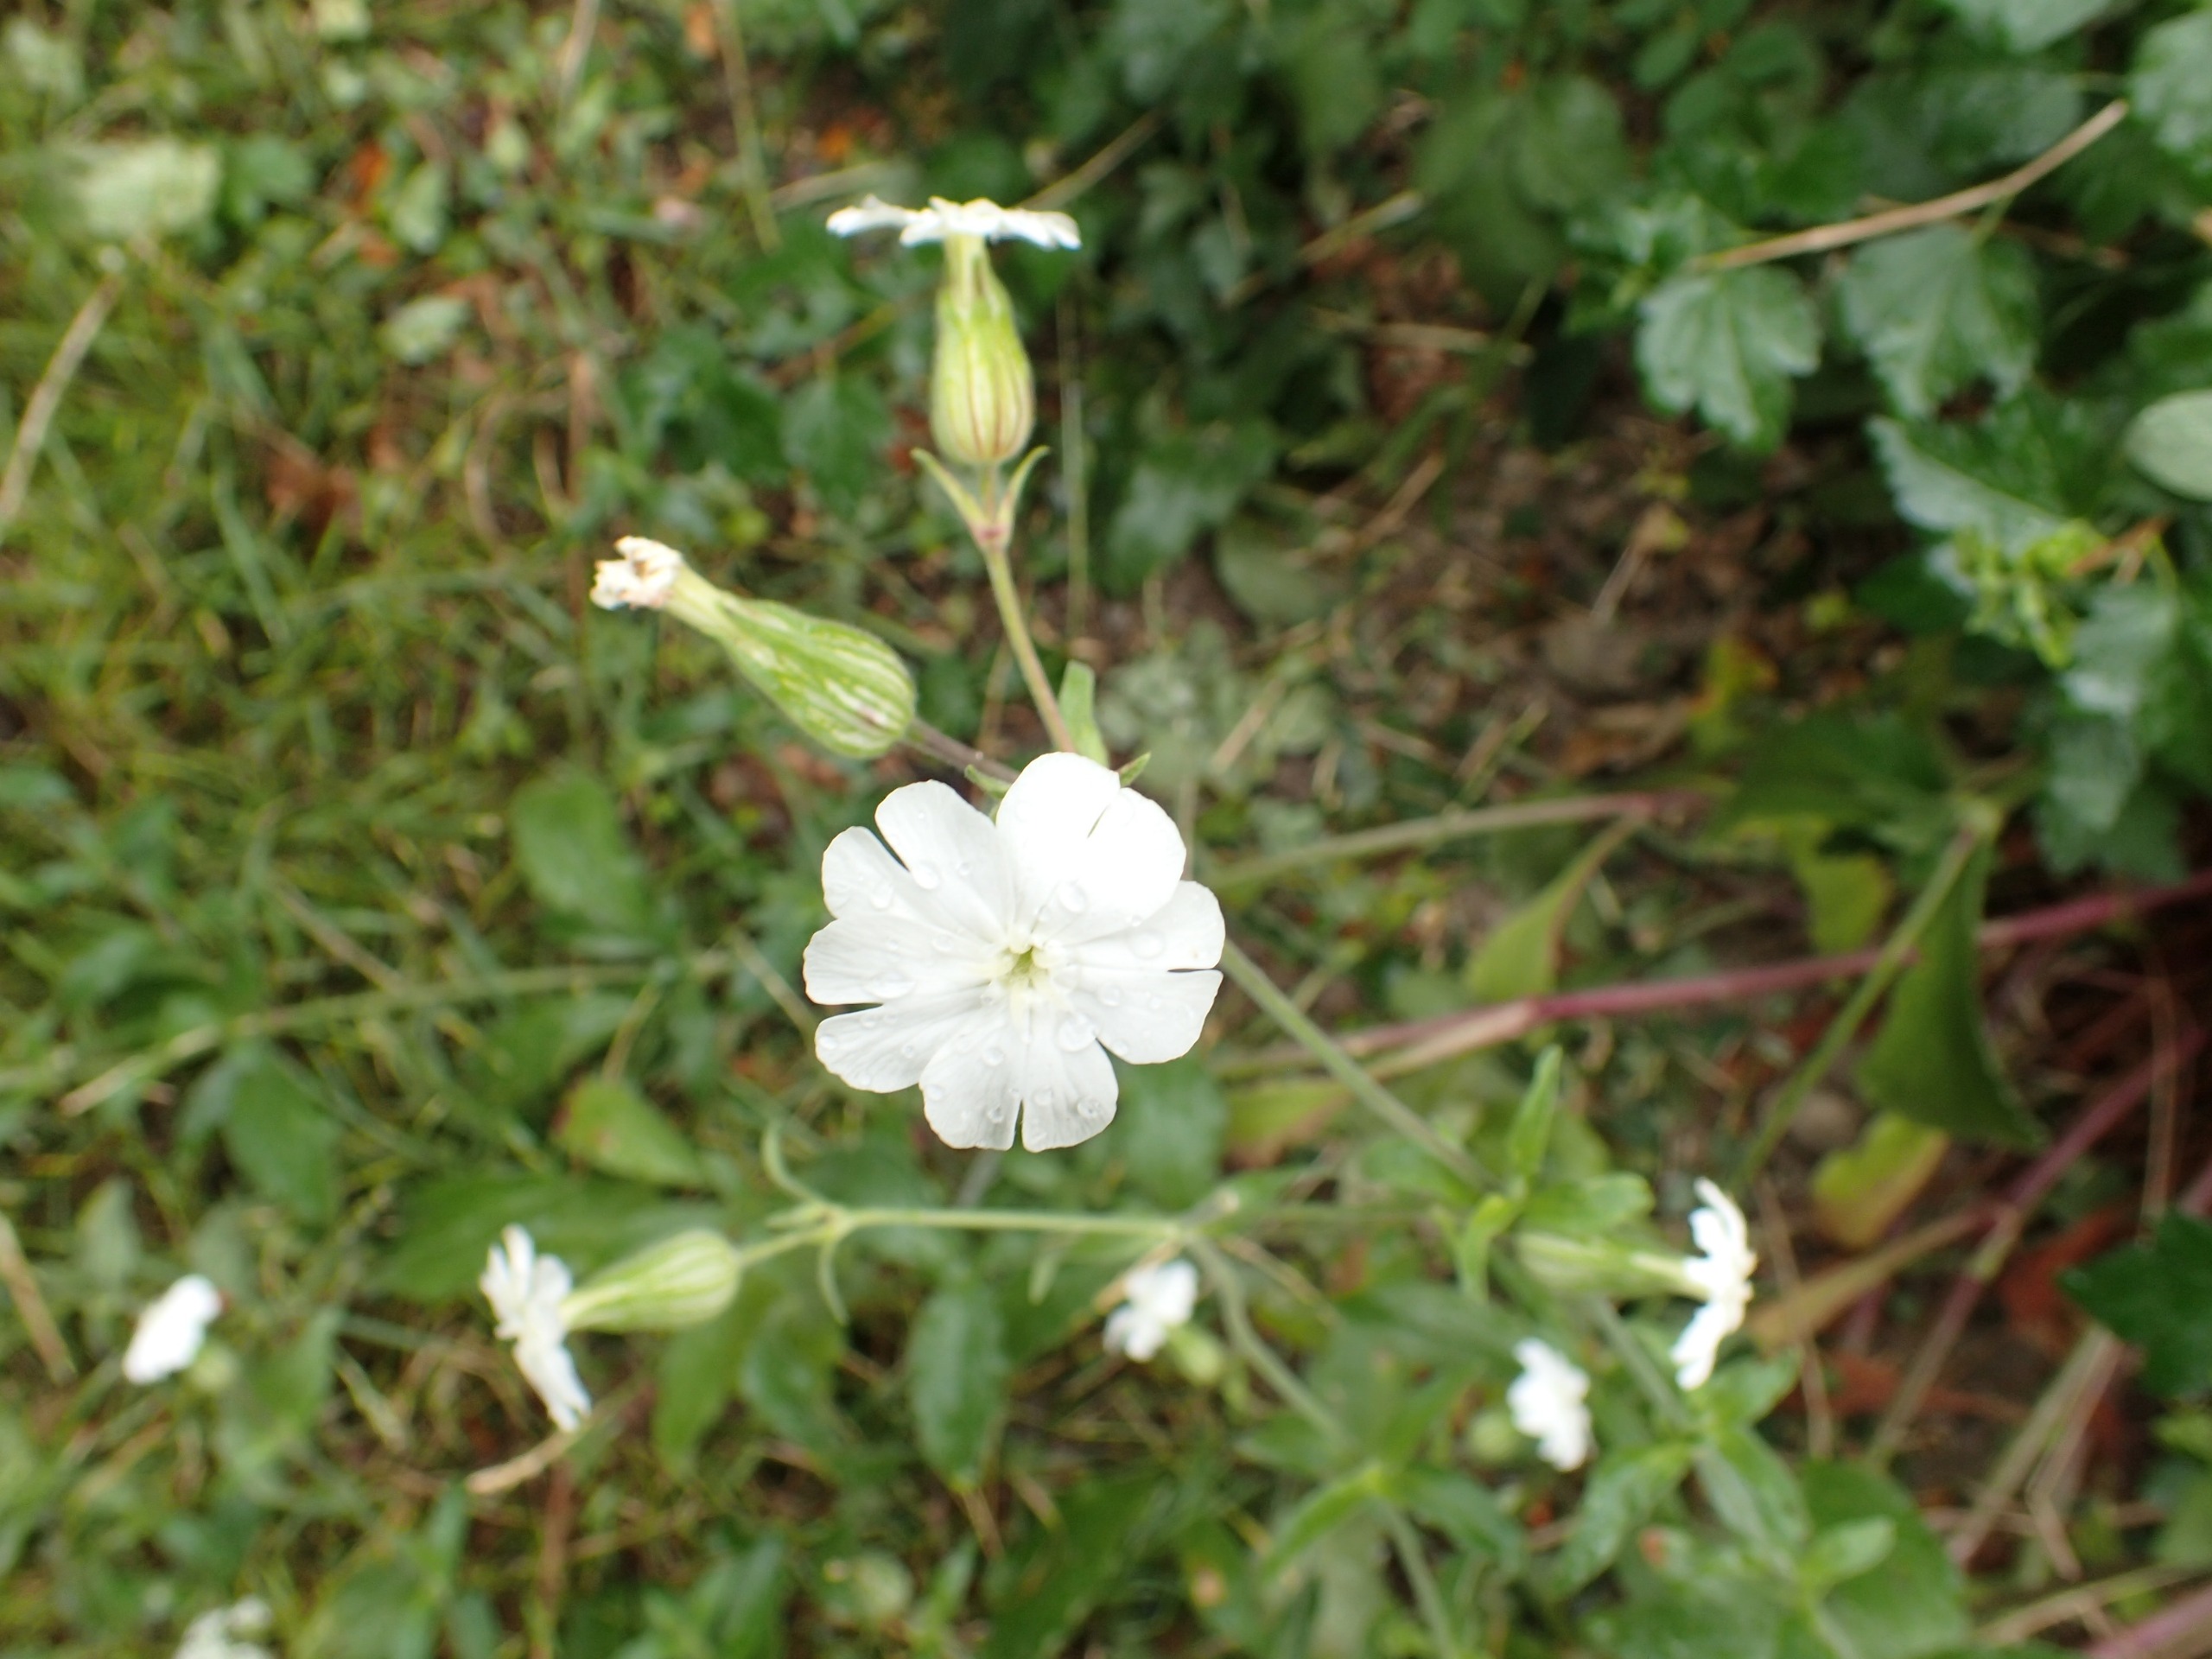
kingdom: Plantae
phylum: Tracheophyta
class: Magnoliopsida
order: Caryophyllales
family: Caryophyllaceae
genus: Silene
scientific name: Silene latifolia
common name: Aftenpragtstjerne
